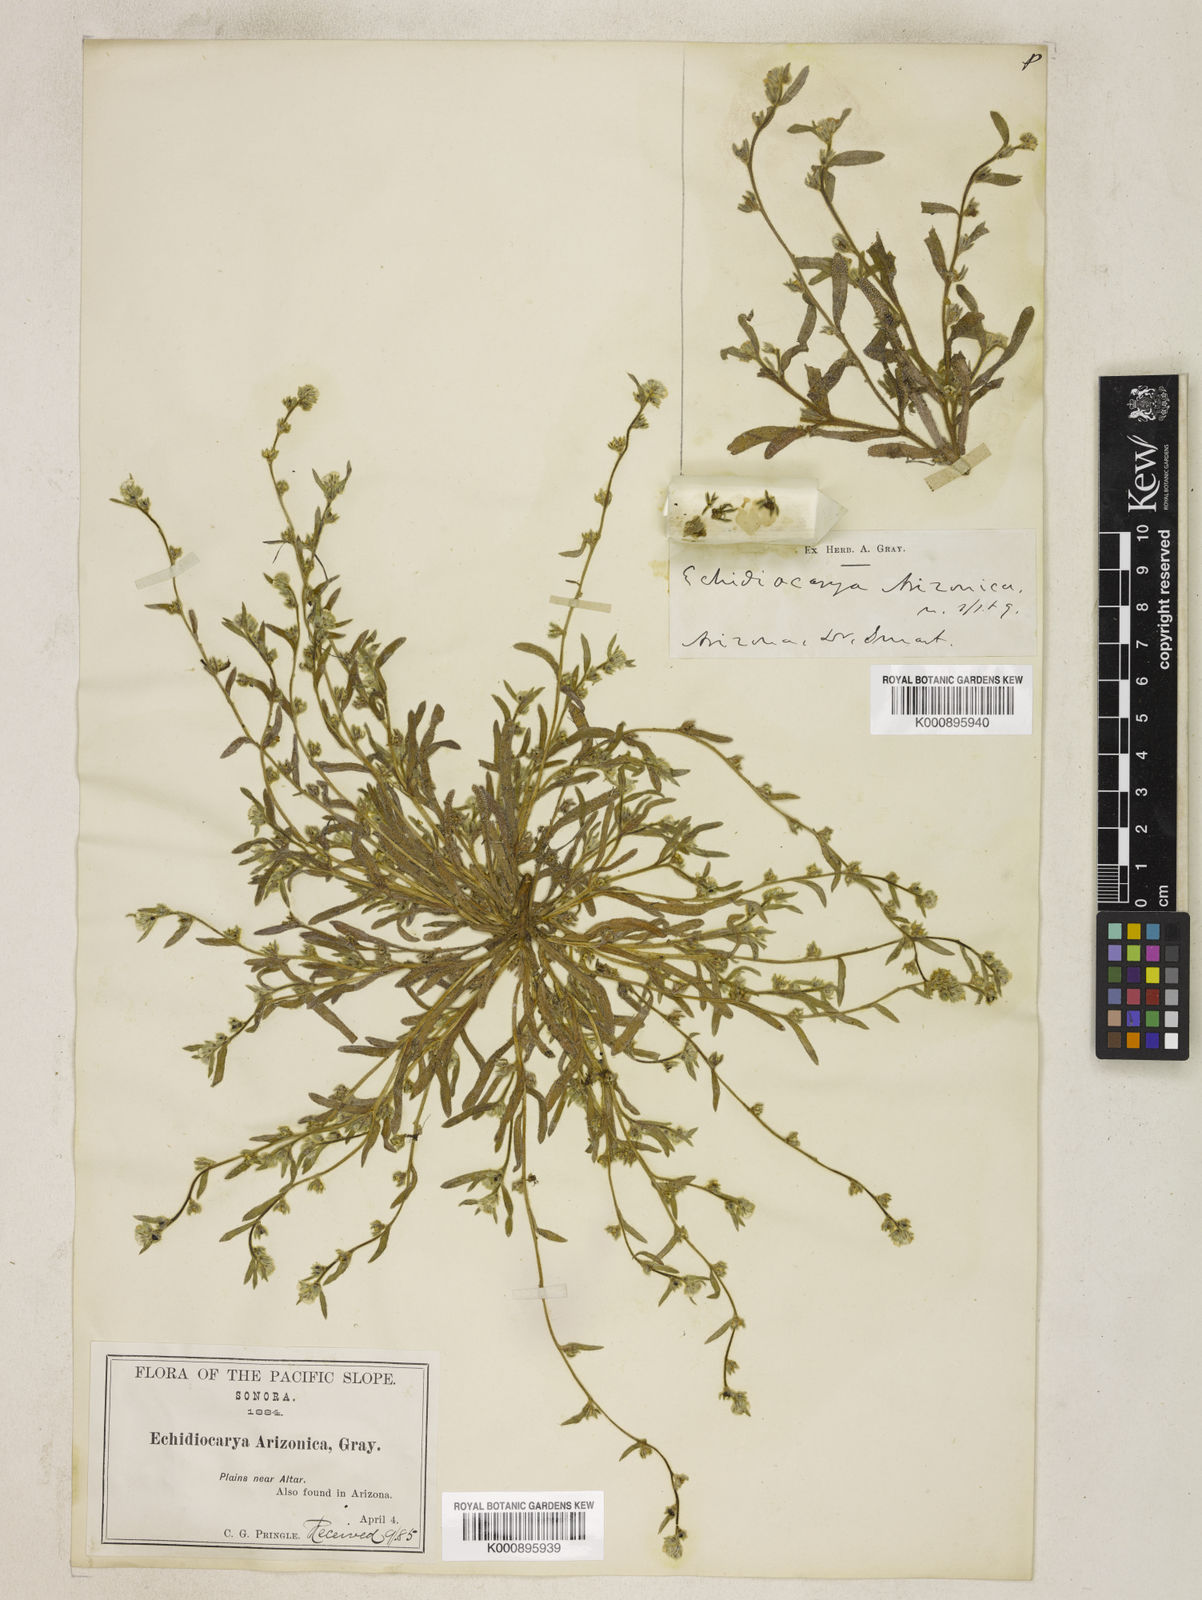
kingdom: Plantae
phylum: Tracheophyta
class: Magnoliopsida
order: Boraginales
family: Boraginaceae
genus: Plagiobothrys
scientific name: Plagiobothrys arizonicus
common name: Arizona popcorn-flower
